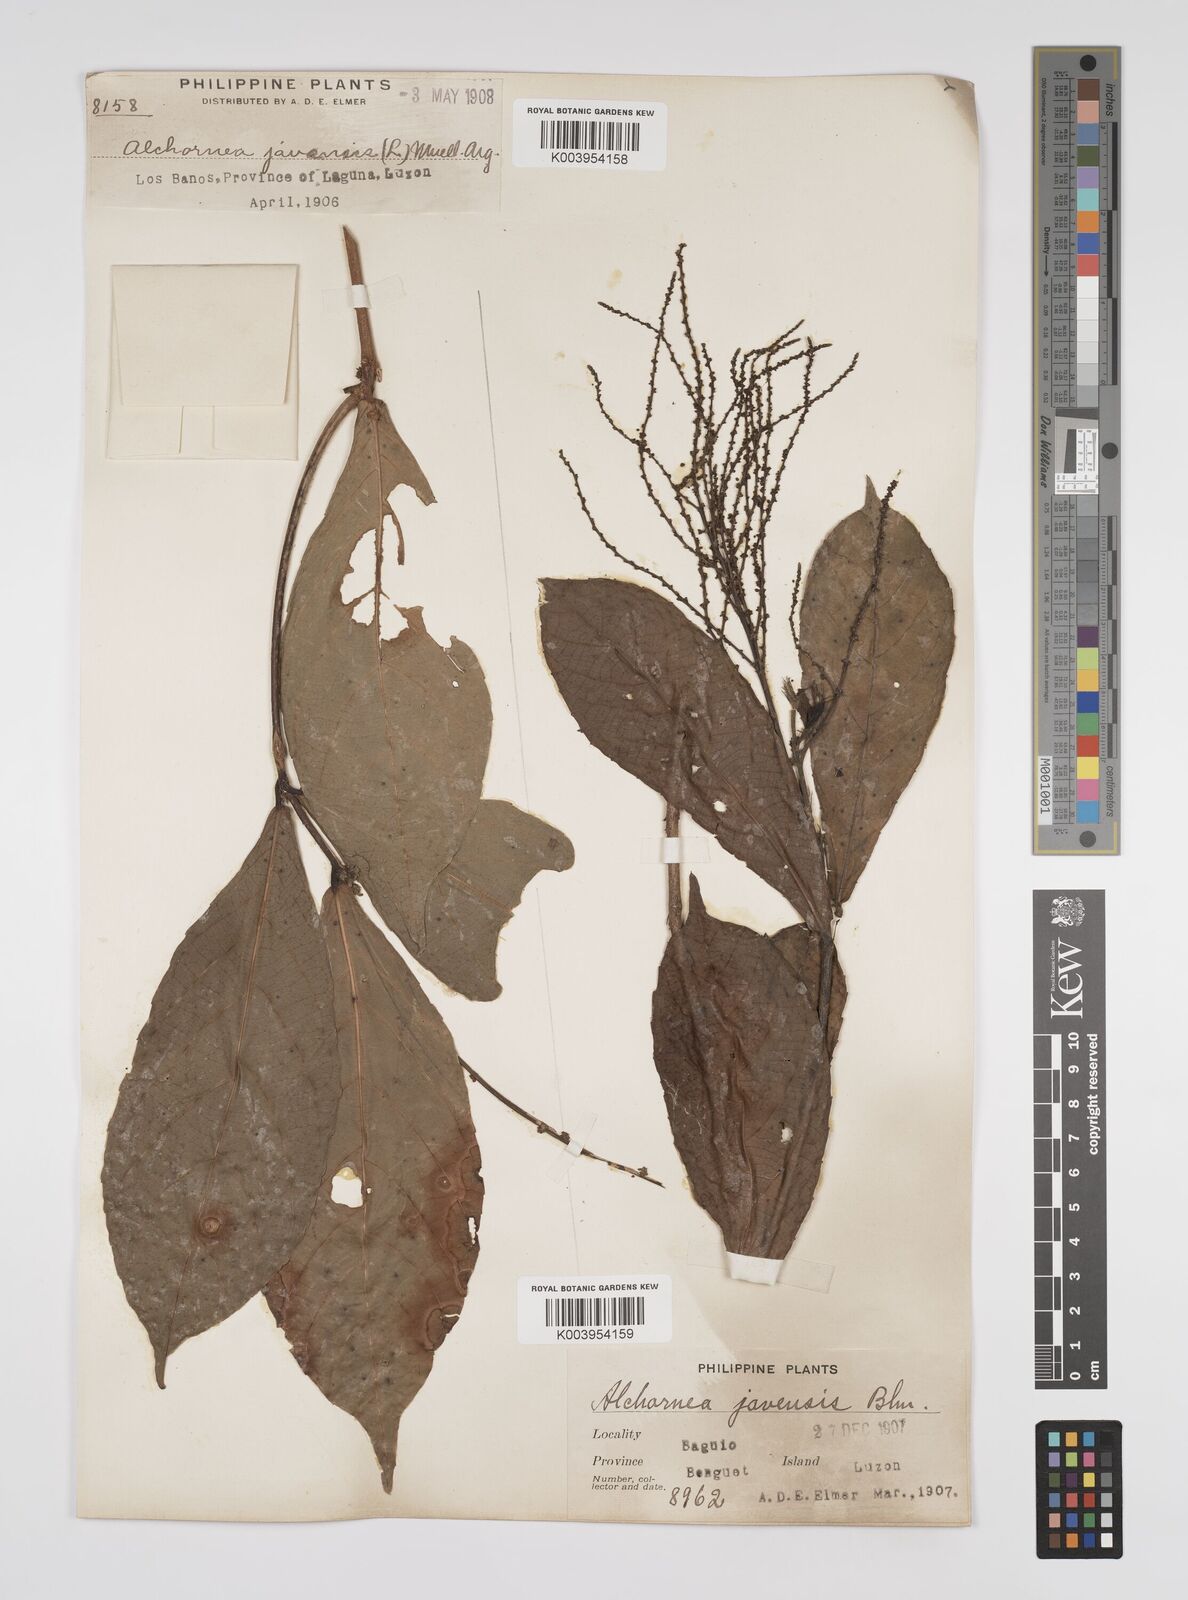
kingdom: Plantae
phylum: Tracheophyta
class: Magnoliopsida
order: Malpighiales
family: Euphorbiaceae
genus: Alchornea
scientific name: Alchornea rugosa
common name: Alchorntree
